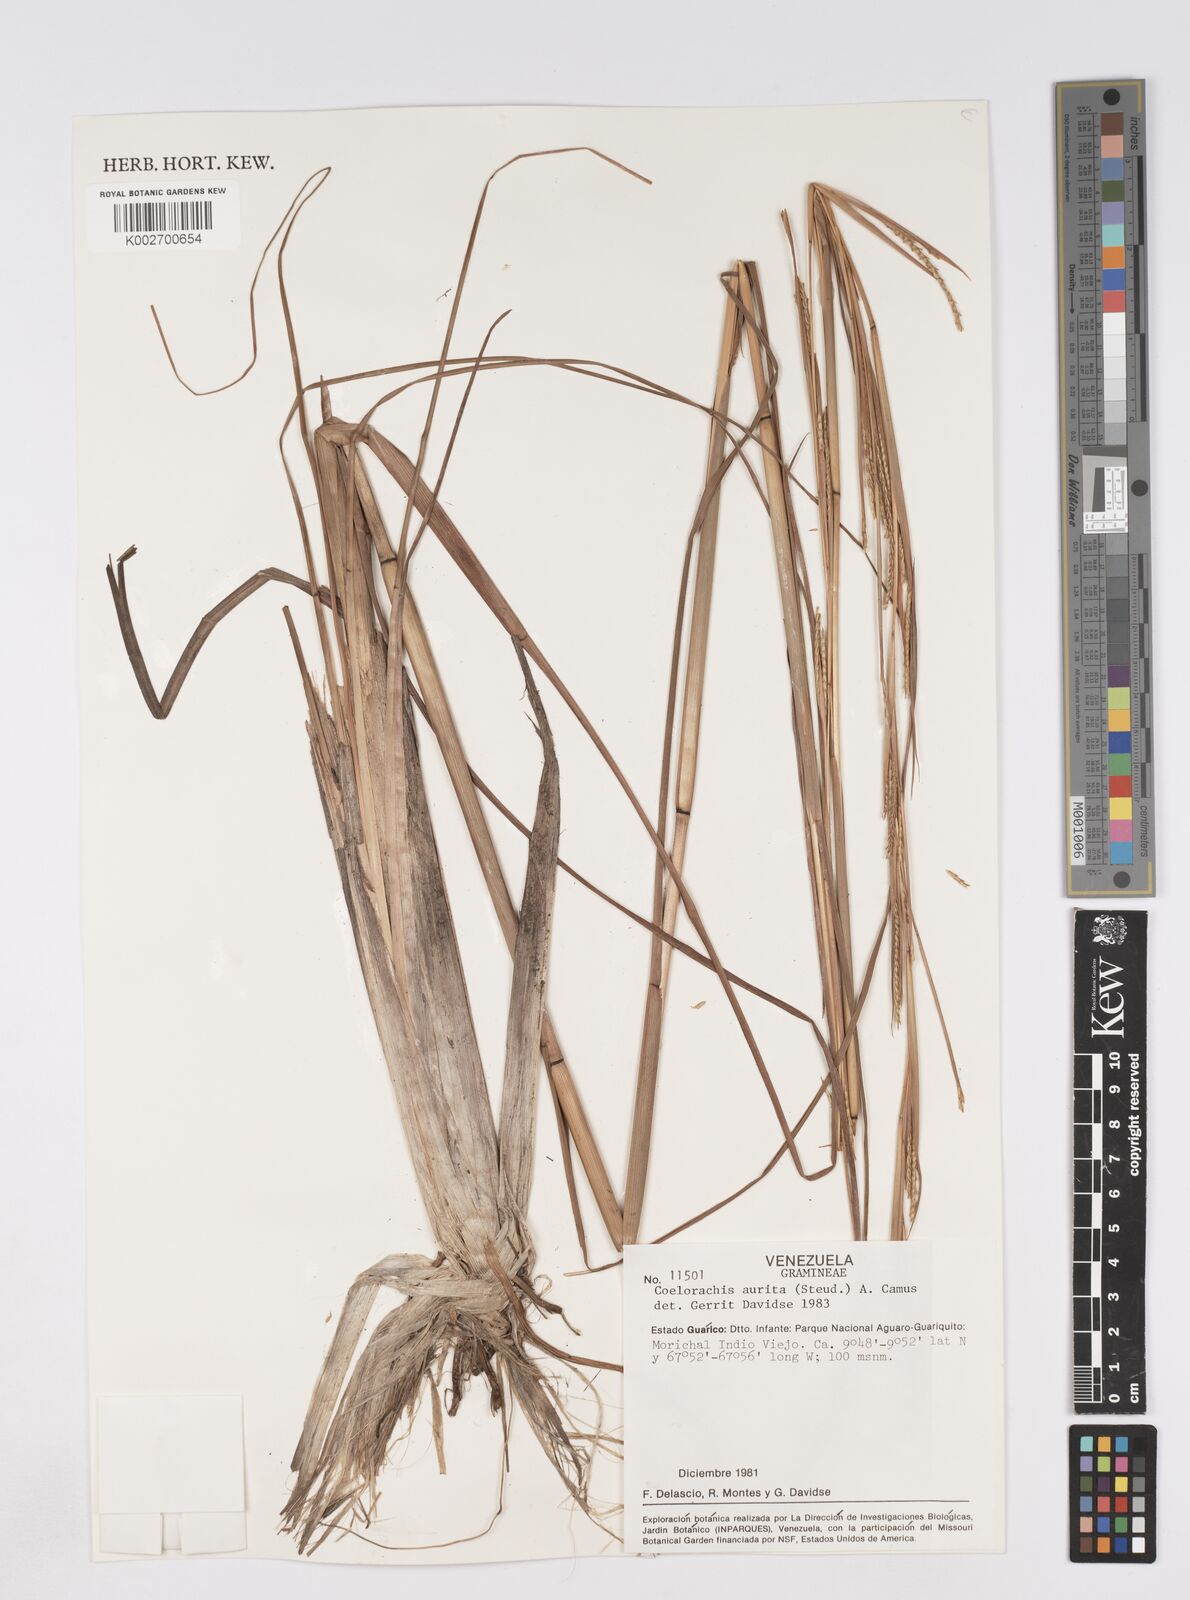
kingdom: Plantae
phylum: Tracheophyta
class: Liliopsida
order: Poales
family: Poaceae
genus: Rottboellia
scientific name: Rottboellia aurita
